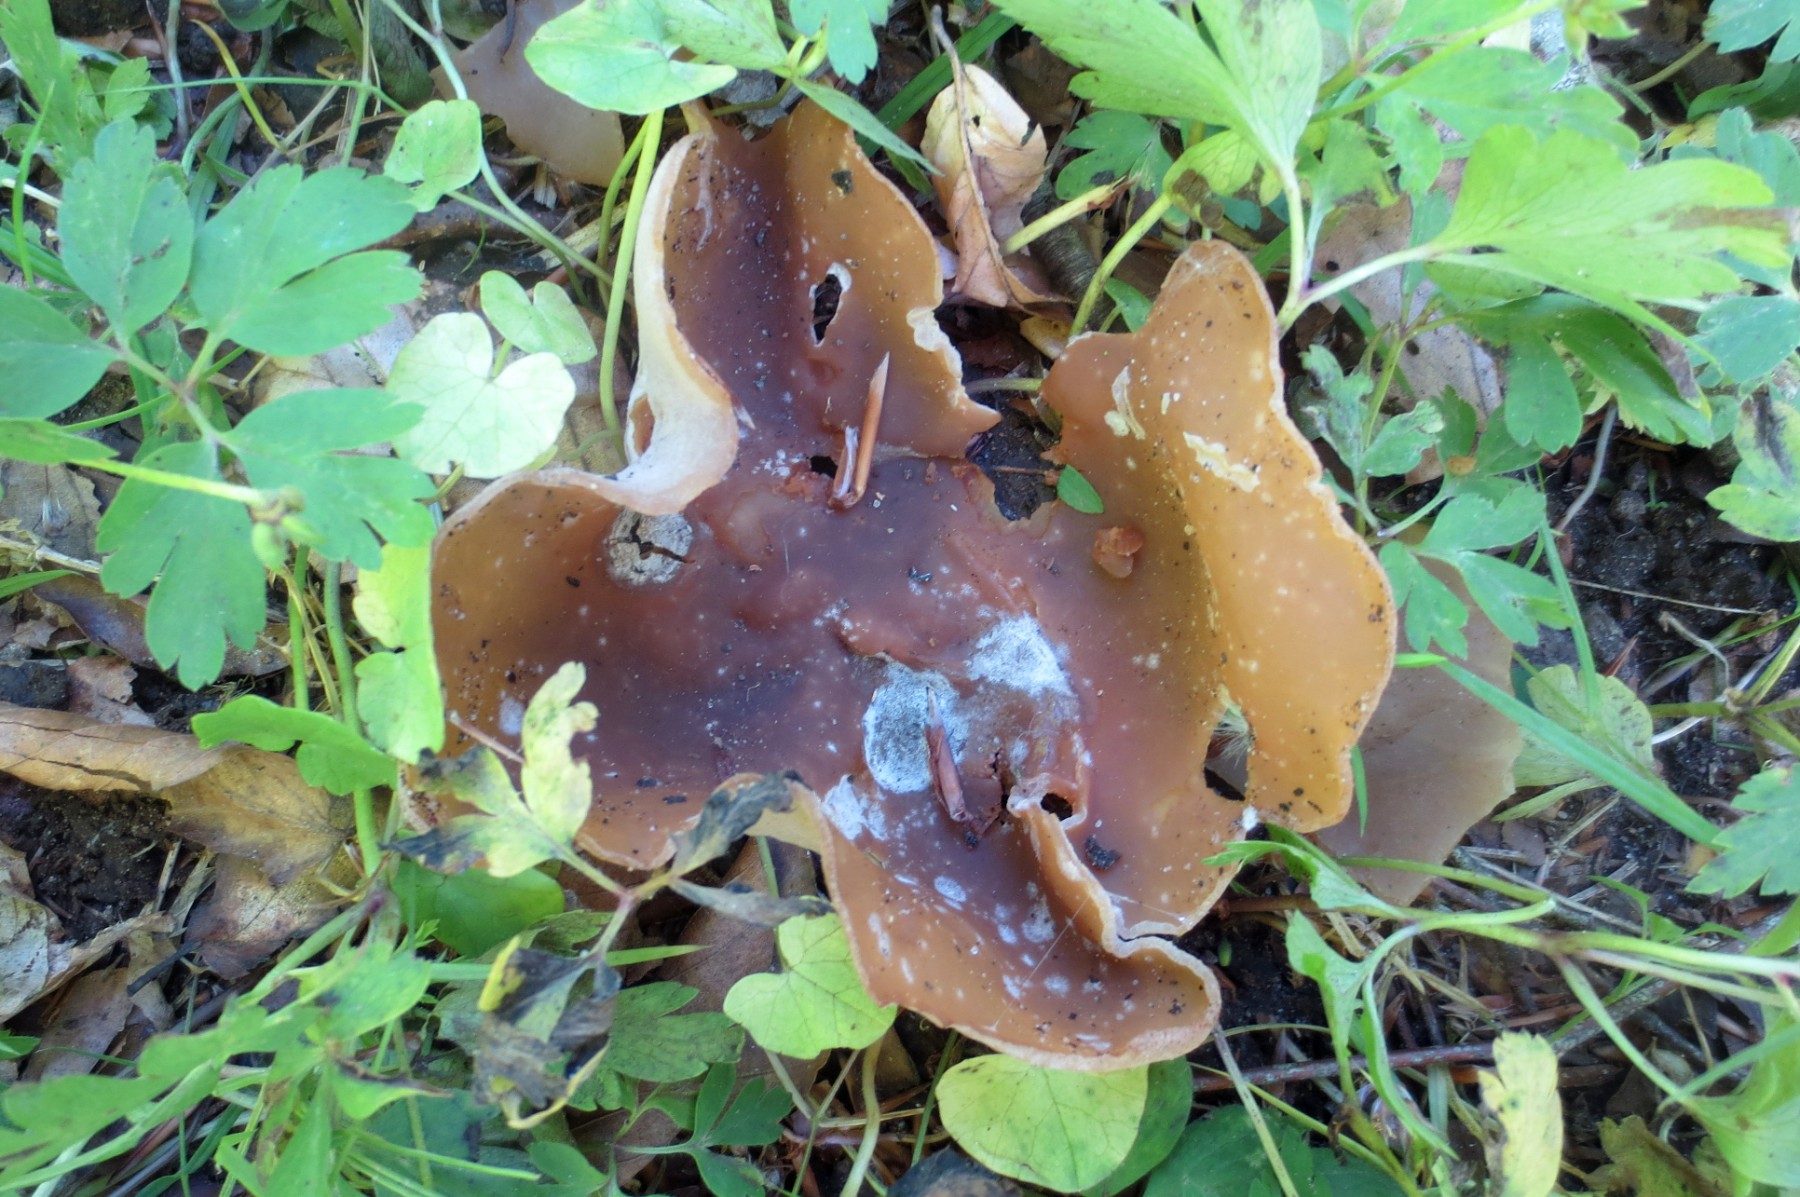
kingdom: Fungi
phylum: Ascomycota
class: Pezizomycetes
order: Pezizales
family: Morchellaceae
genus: Disciotis
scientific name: Disciotis venosa
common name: klor-bægermorkel
